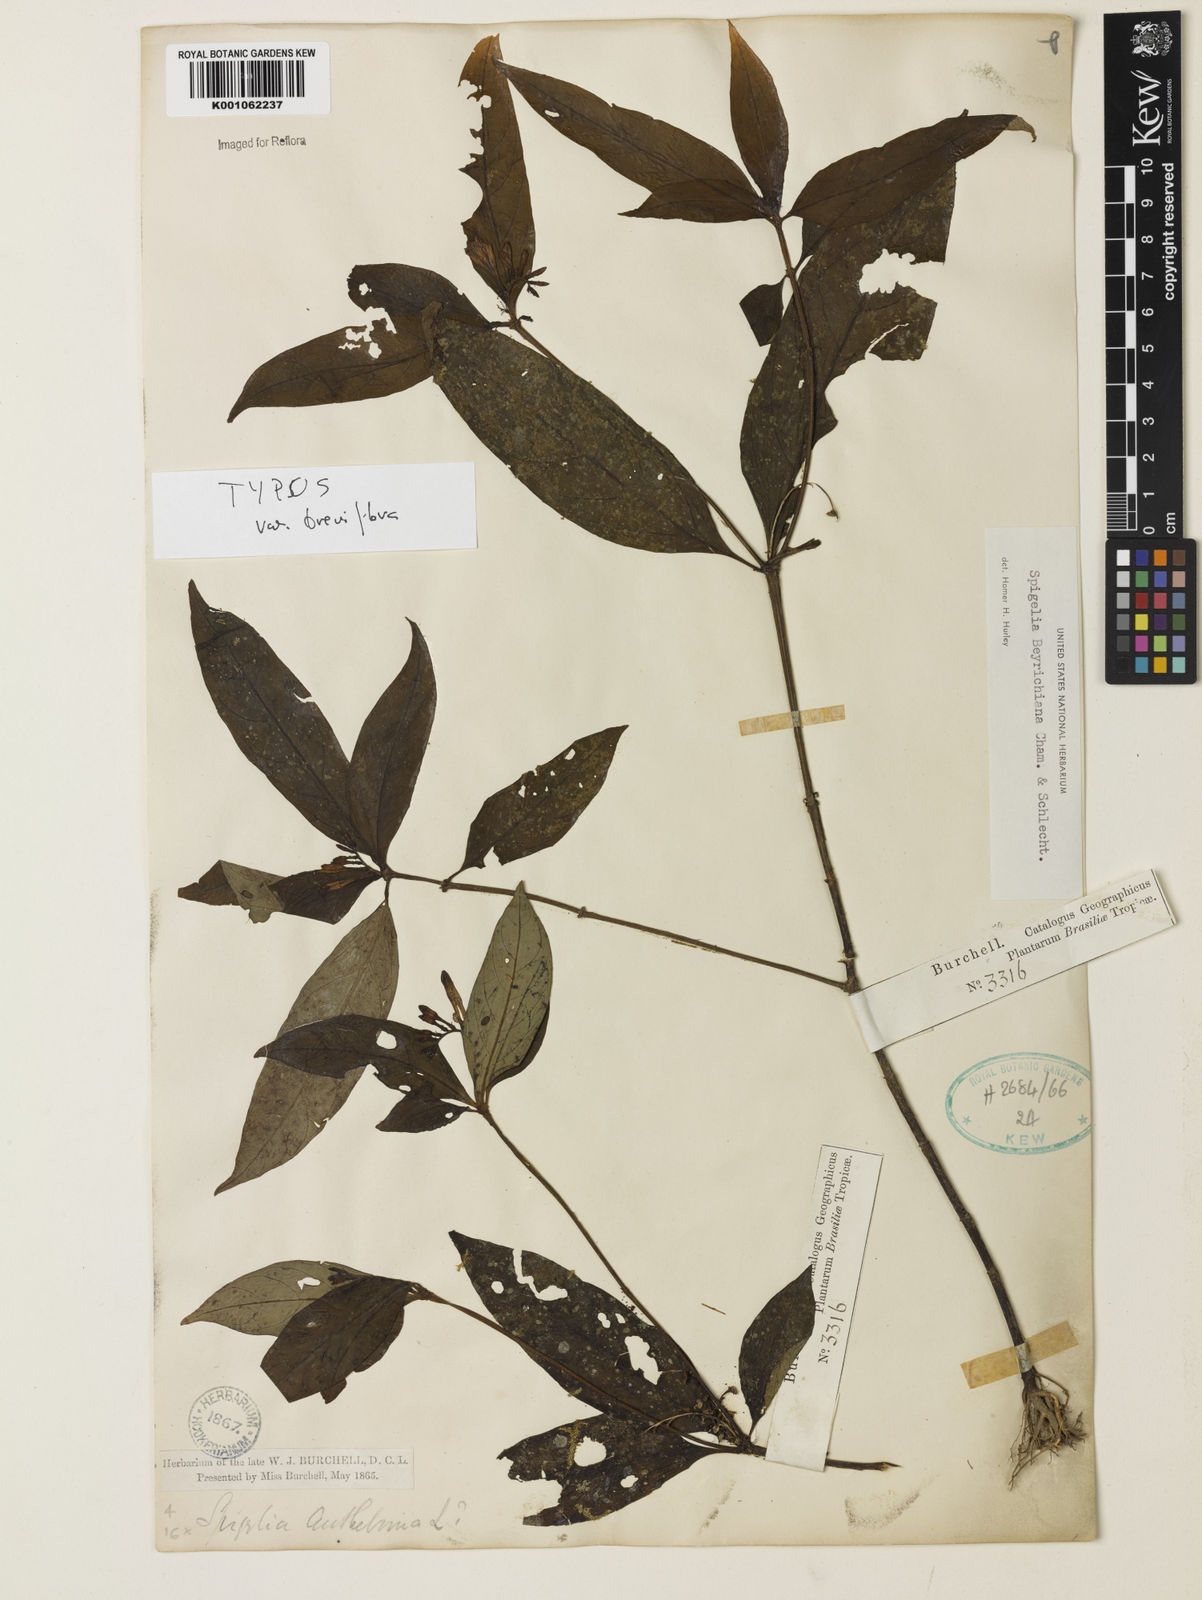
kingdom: Plantae
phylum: Tracheophyta
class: Magnoliopsida
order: Gentianales
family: Loganiaceae
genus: Spigelia
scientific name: Spigelia beyrichiana
